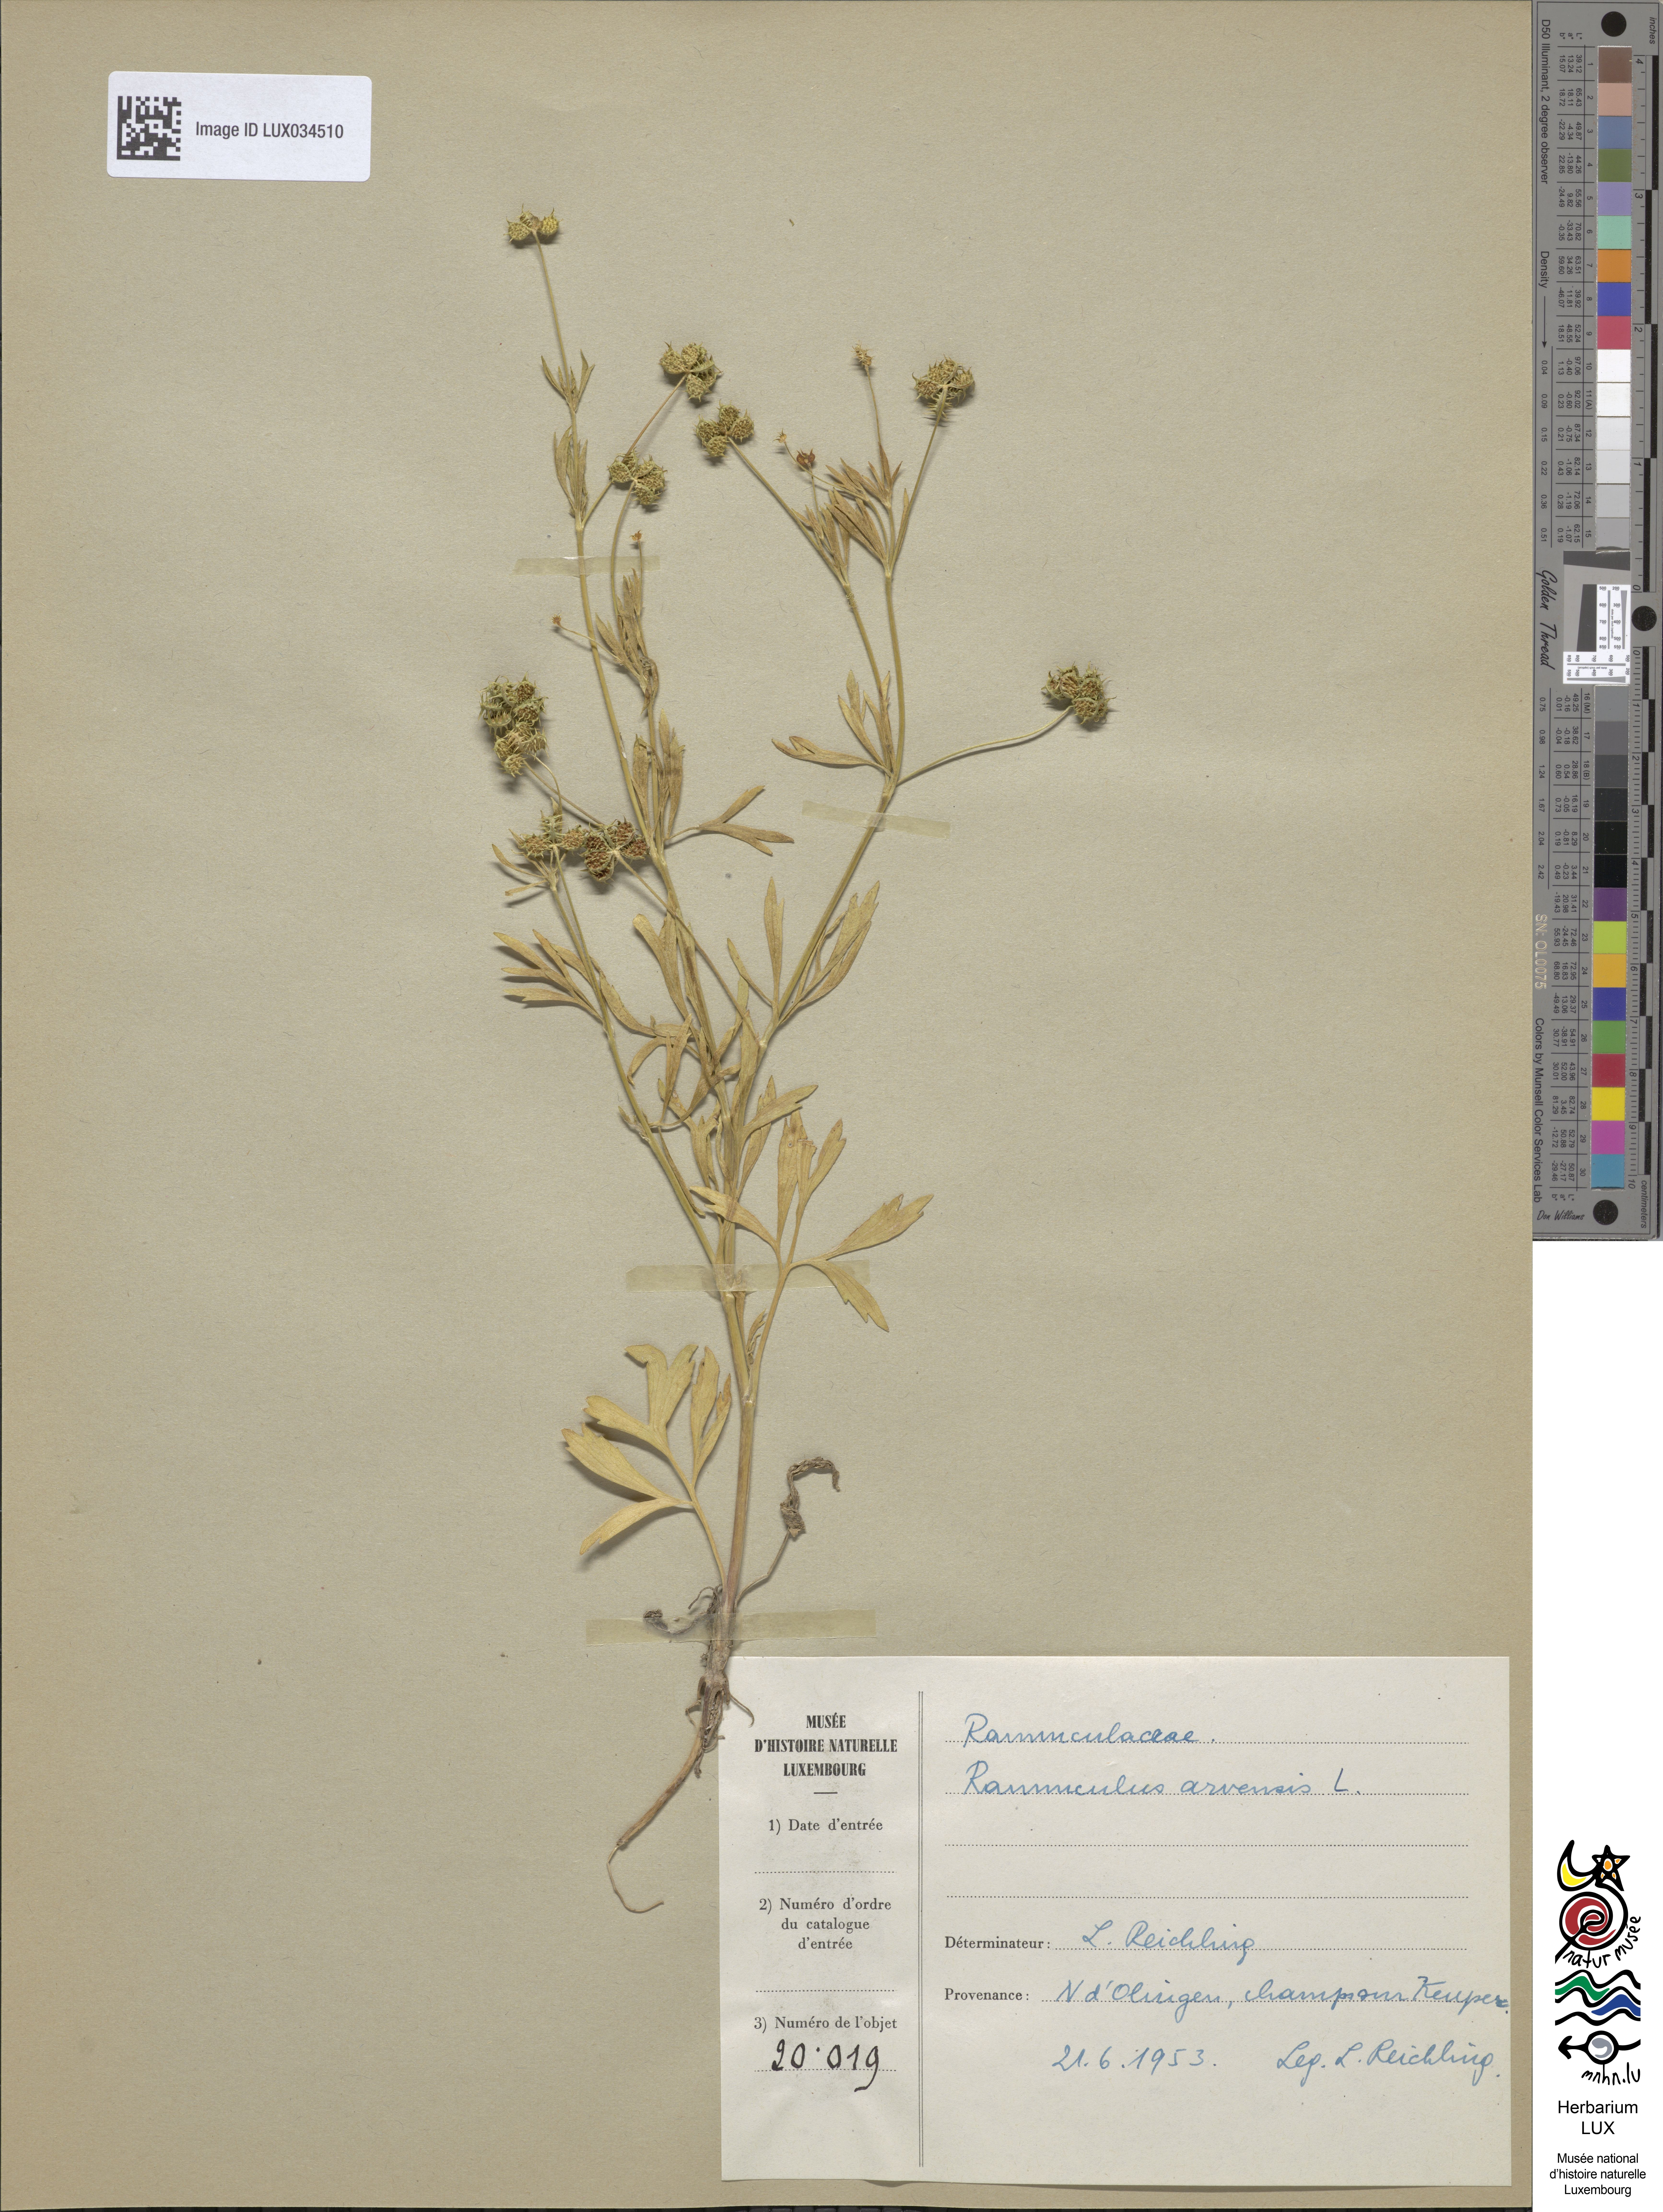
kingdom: Plantae
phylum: Tracheophyta
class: Magnoliopsida
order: Ranunculales
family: Ranunculaceae
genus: Ranunculus
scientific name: Ranunculus arvensis
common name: Corn buttercup
